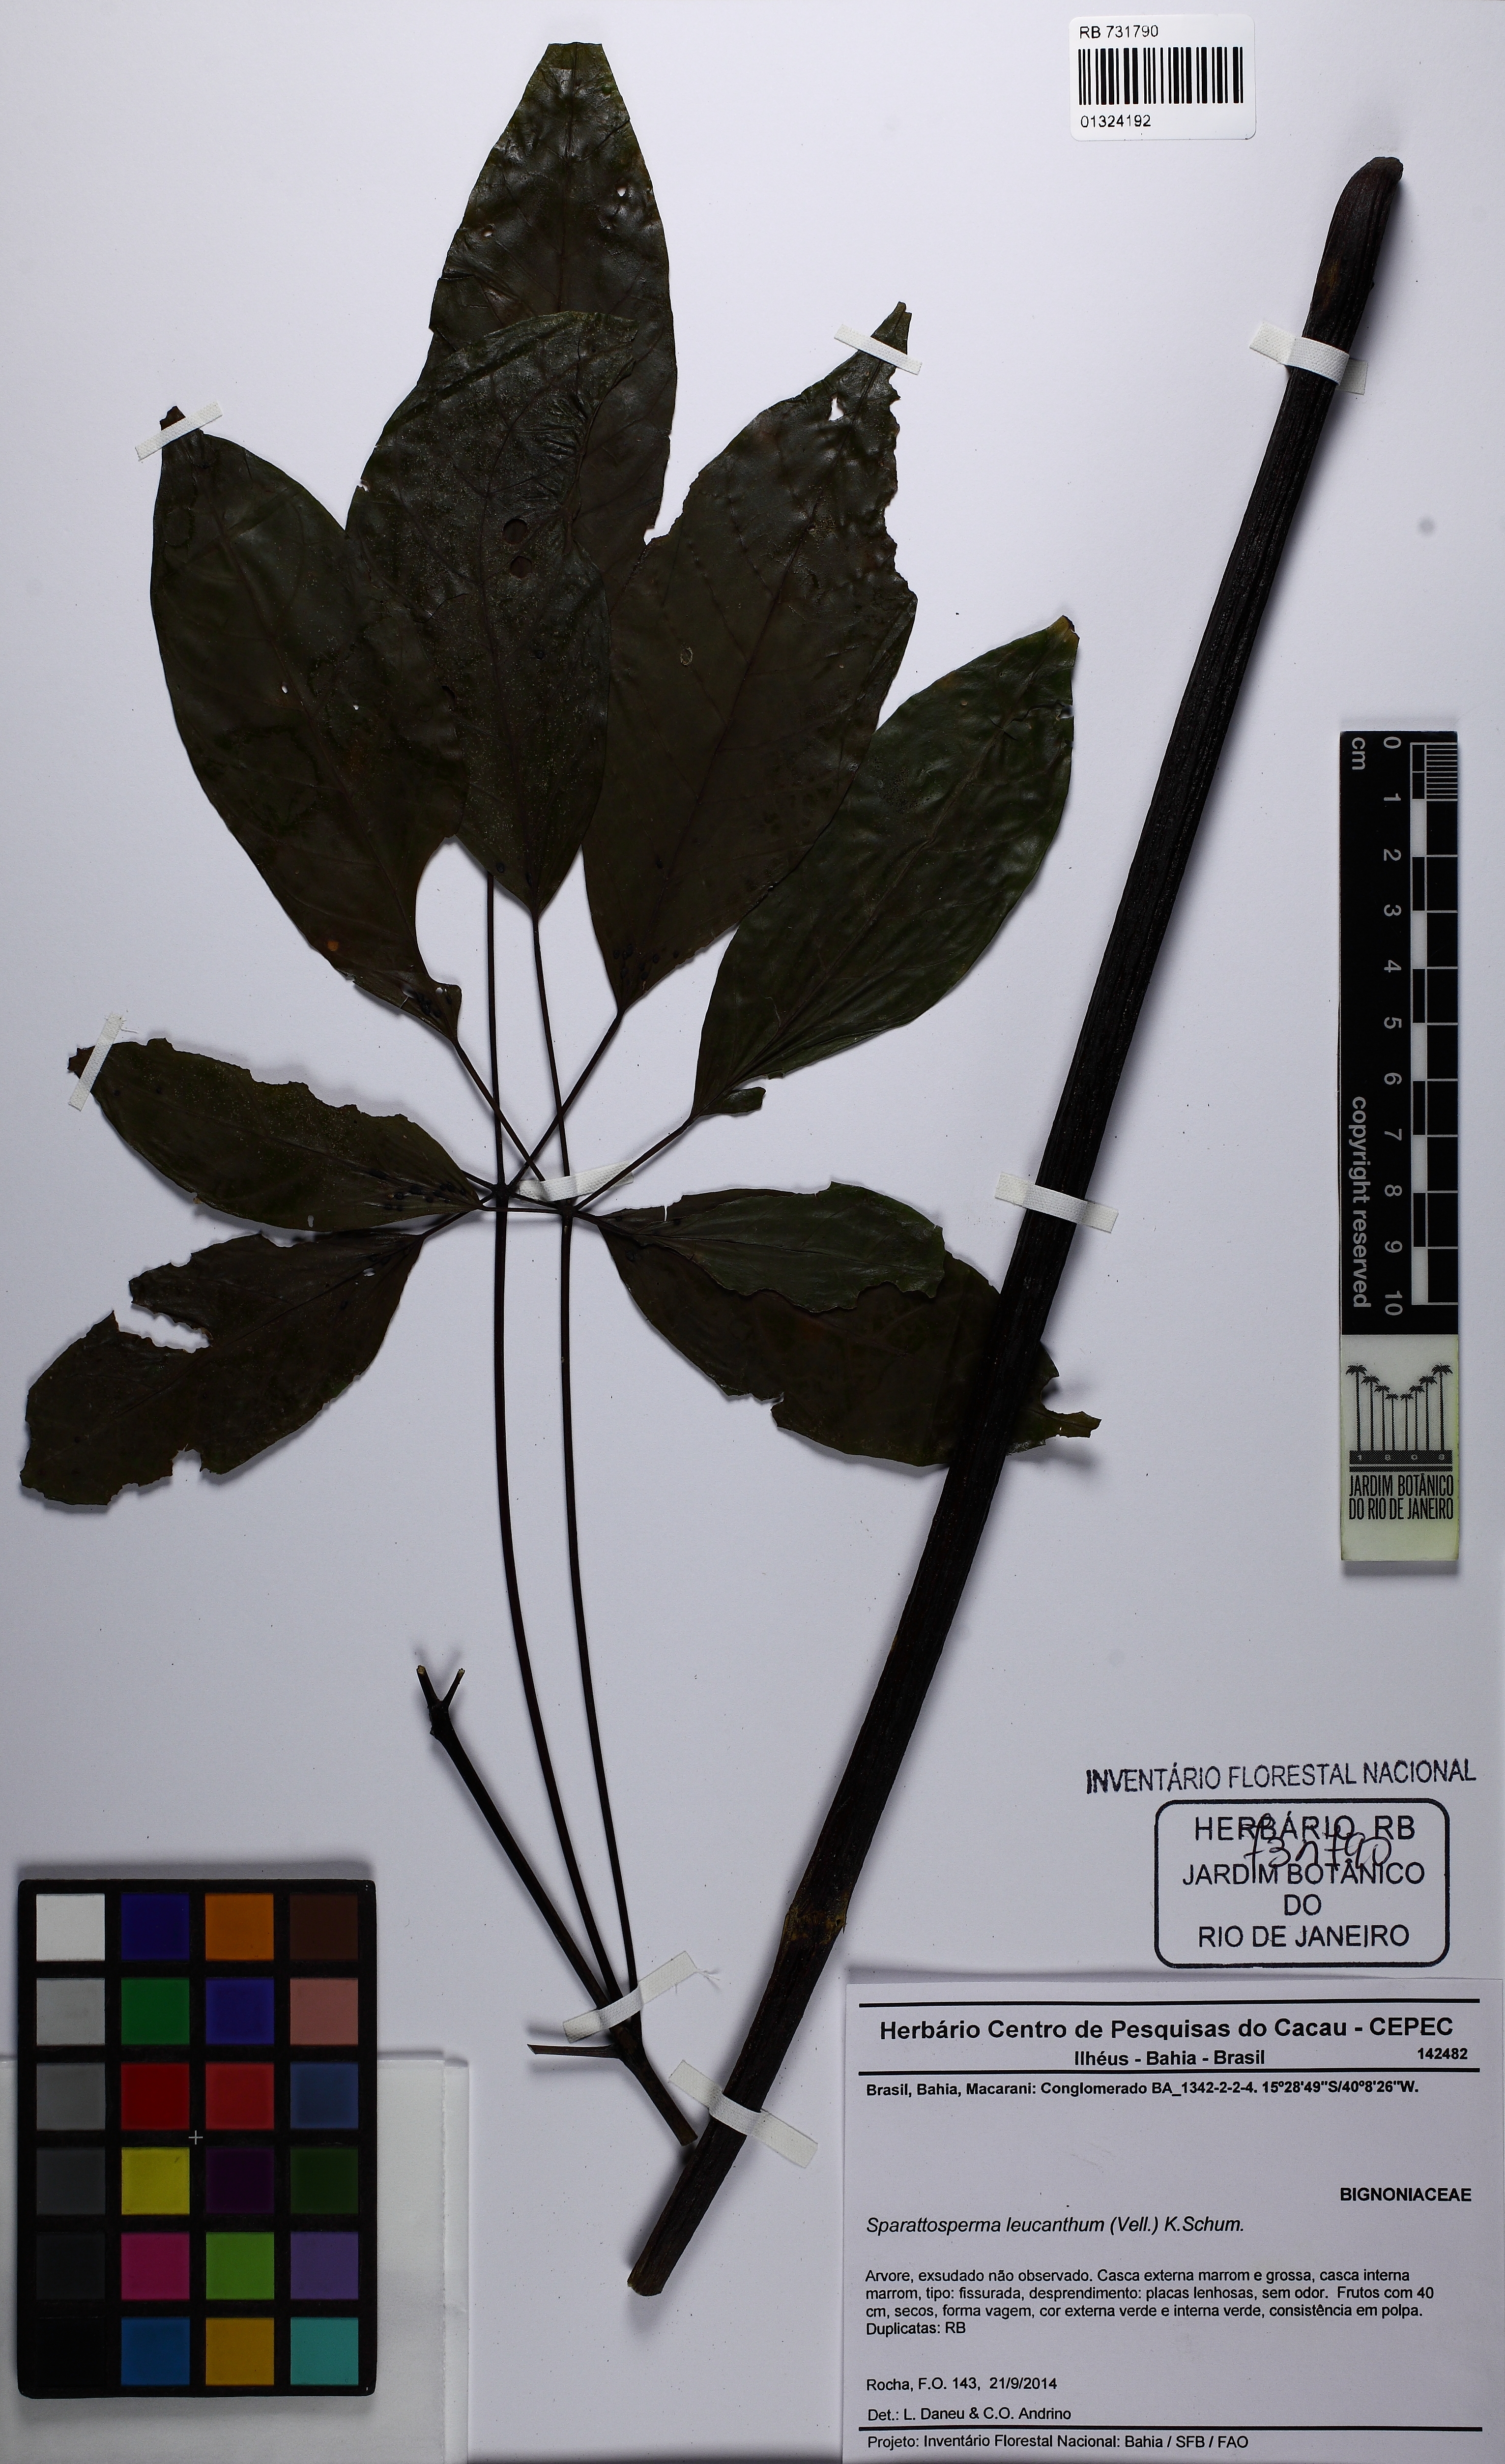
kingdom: Plantae
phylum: Tracheophyta
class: Magnoliopsida
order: Lamiales
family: Bignoniaceae
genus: Sparattosperma
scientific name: Sparattosperma leucanthum
